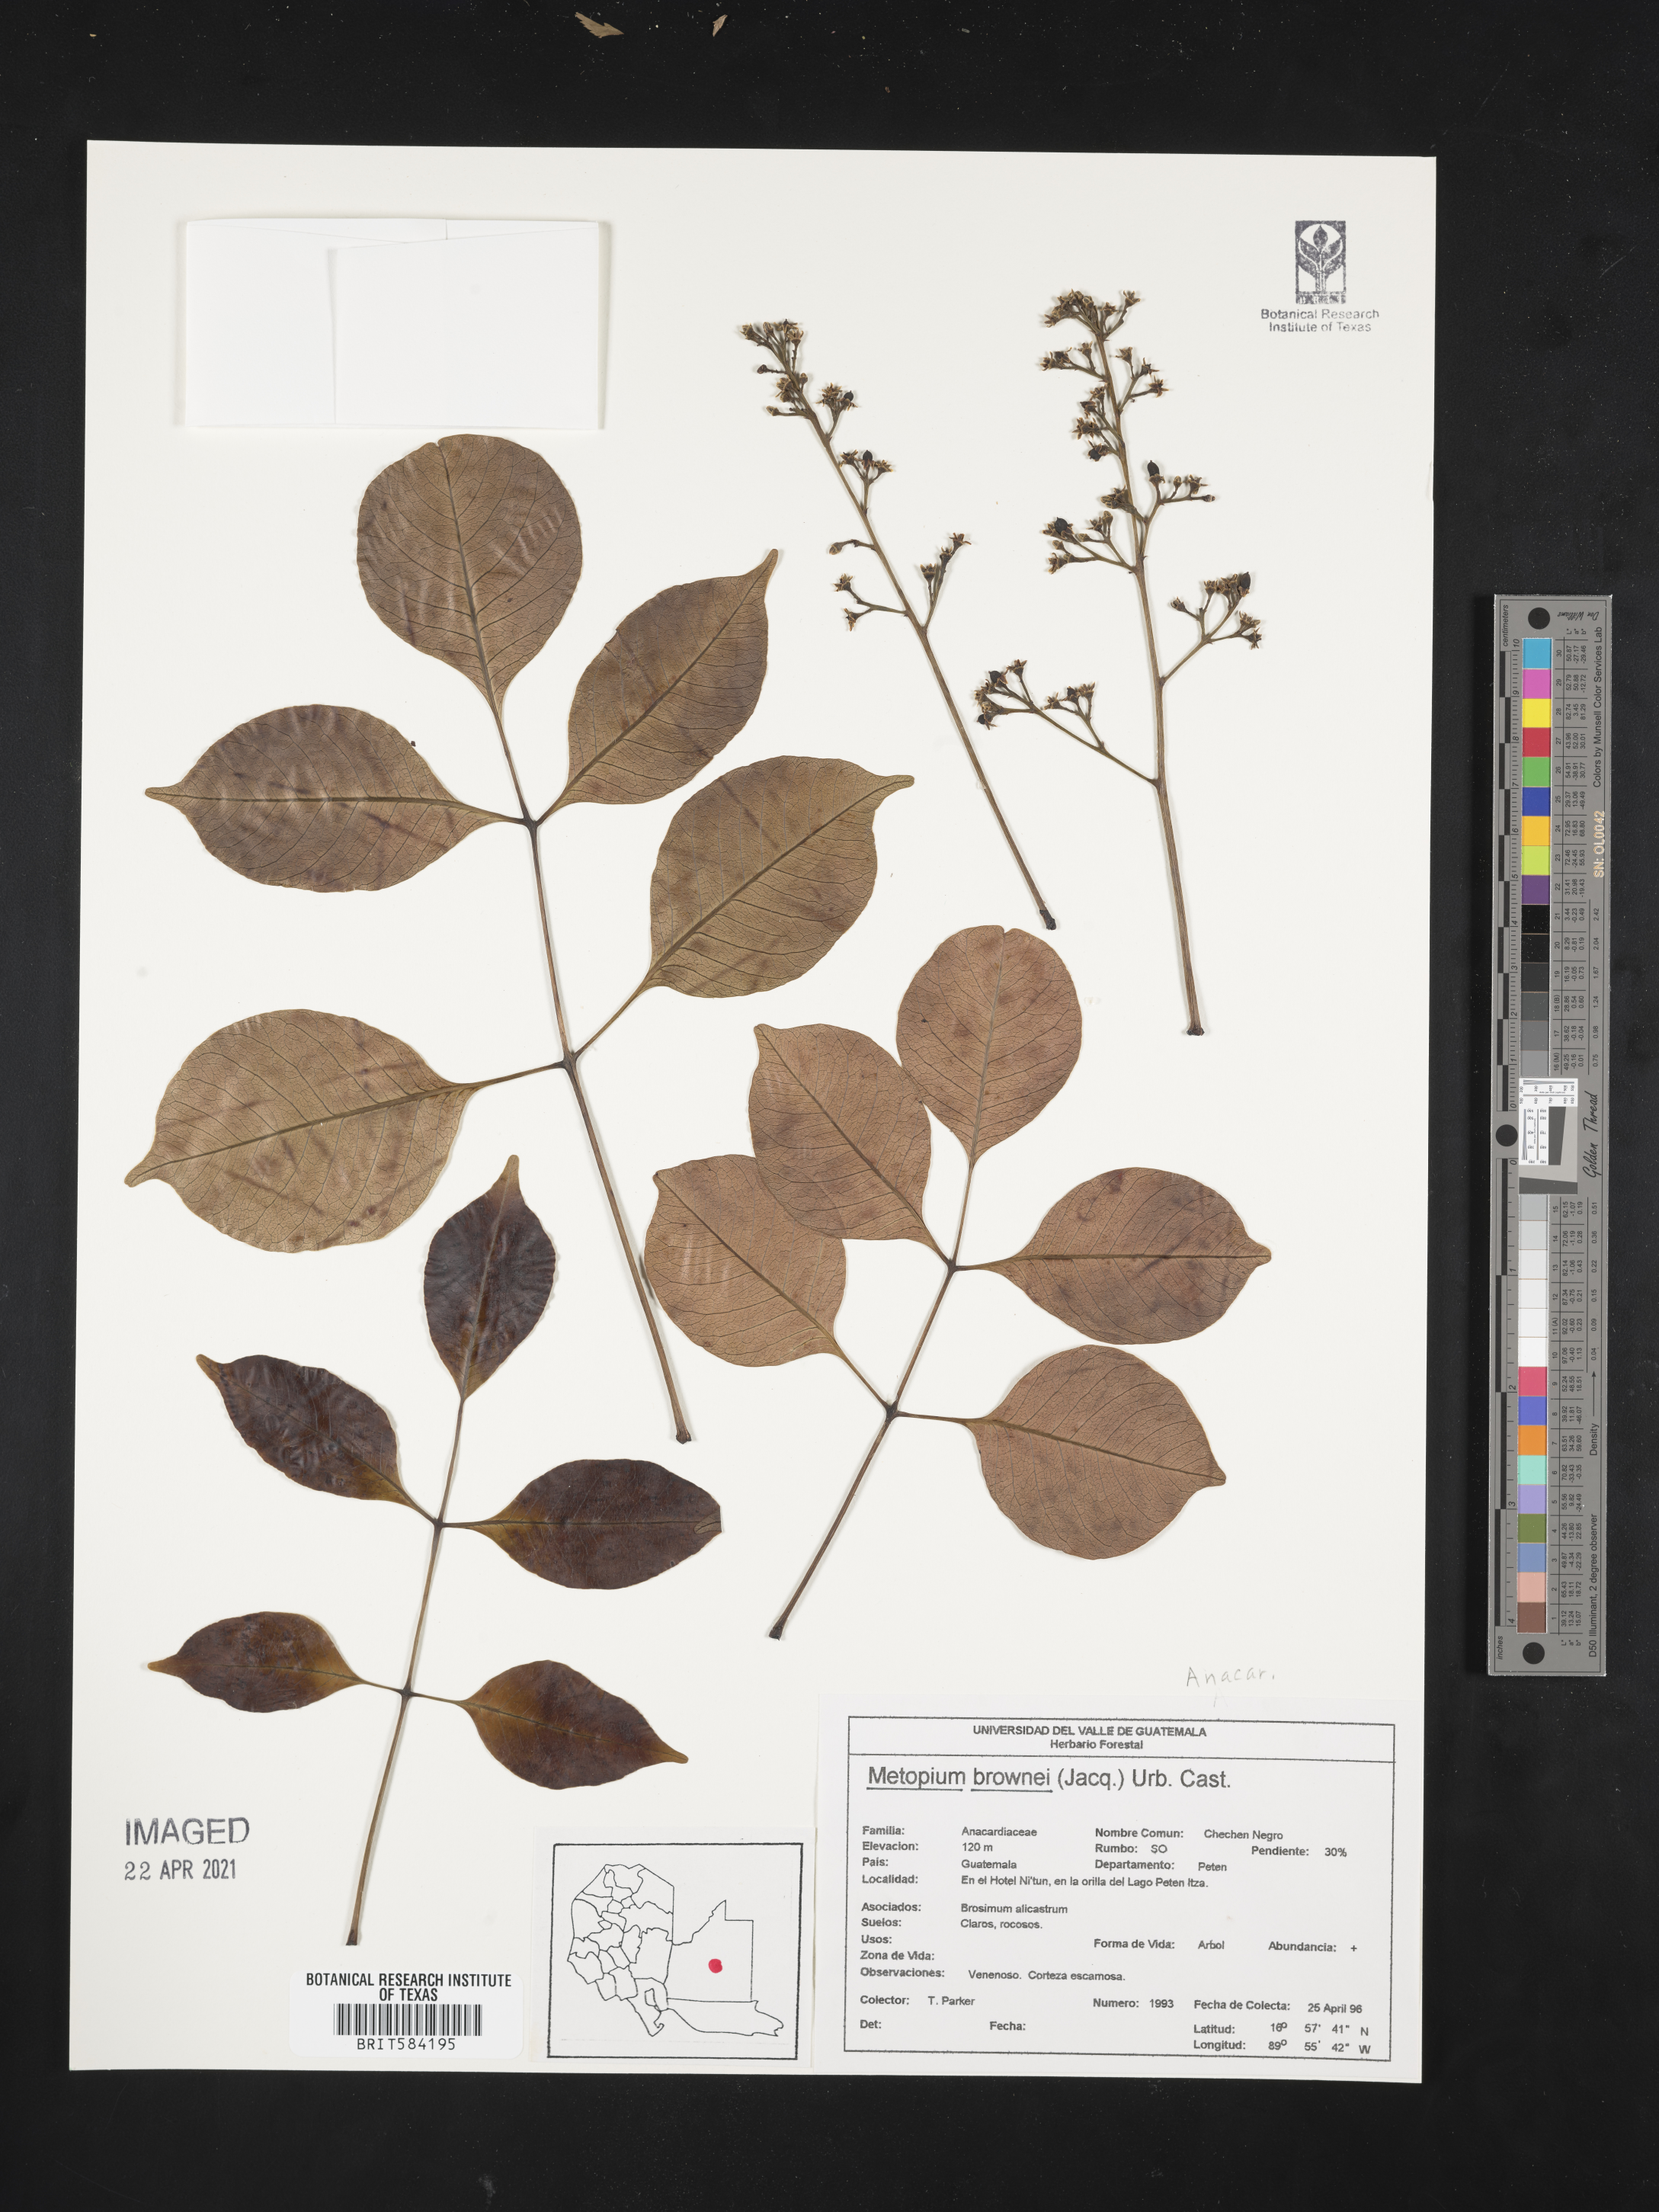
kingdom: Plantae
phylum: Tracheophyta
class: Magnoliopsida
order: Sapindales
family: Anacardiaceae
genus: Metopium
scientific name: Metopium brownei
